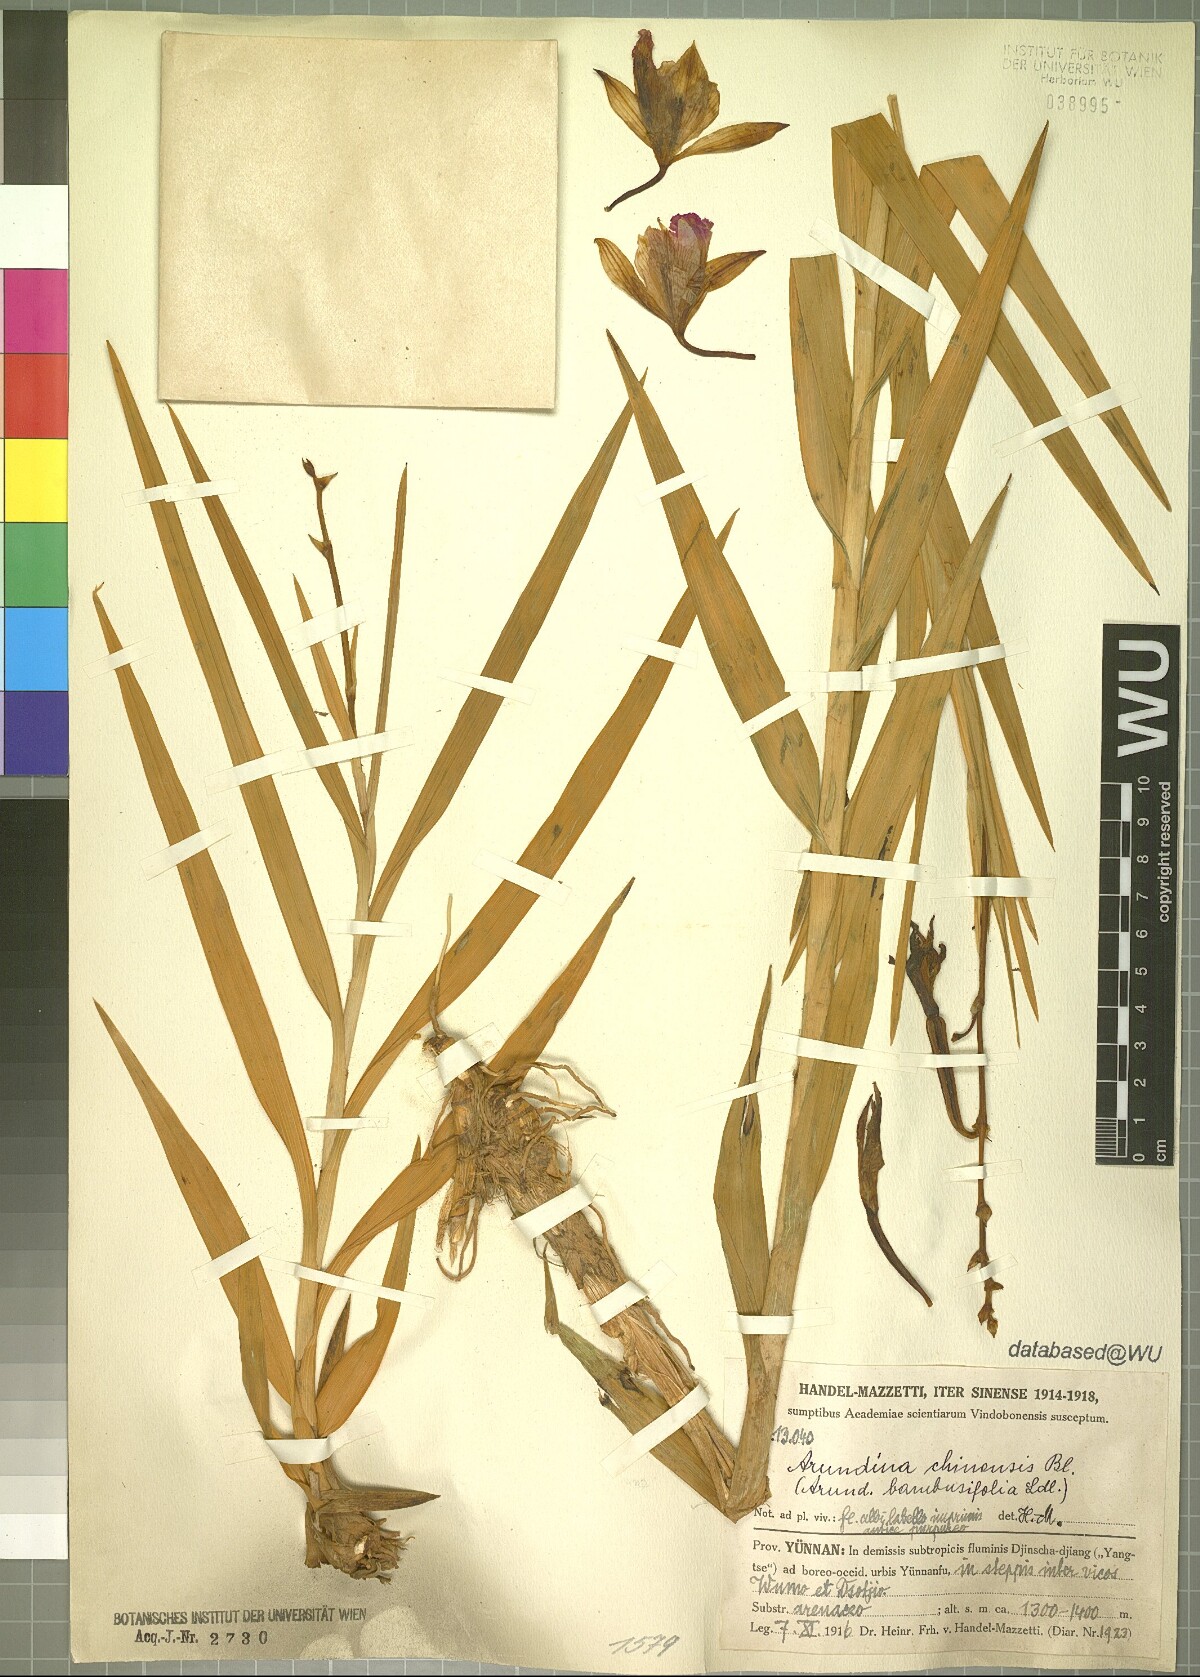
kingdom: Plantae
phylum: Tracheophyta
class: Liliopsida
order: Asparagales
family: Orchidaceae
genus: Arundina
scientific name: Arundina graminifolia
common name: Bamboo orchid
